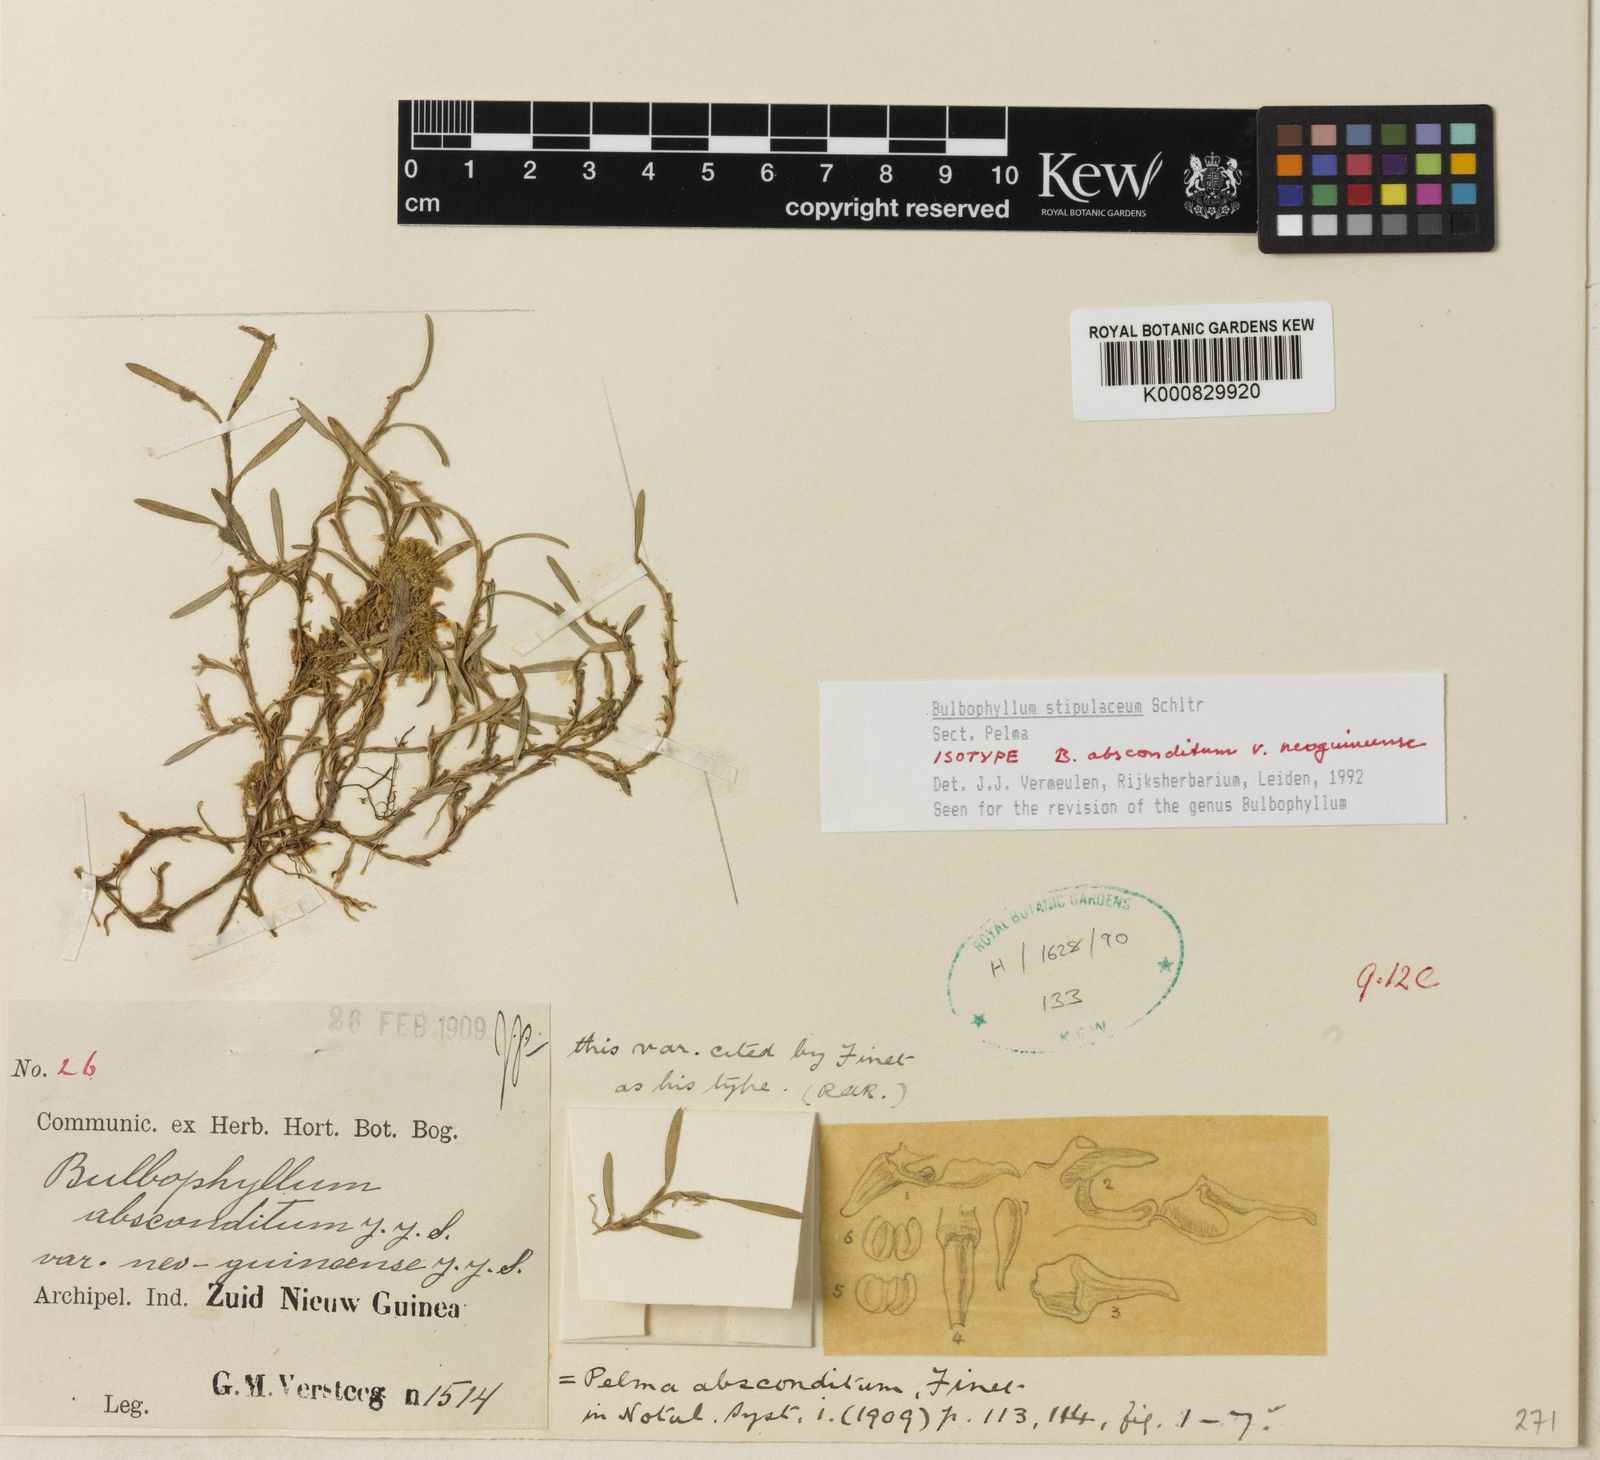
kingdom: Plantae
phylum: Tracheophyta
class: Liliopsida
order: Asparagales
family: Orchidaceae
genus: Bulbophyllum
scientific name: Bulbophyllum
